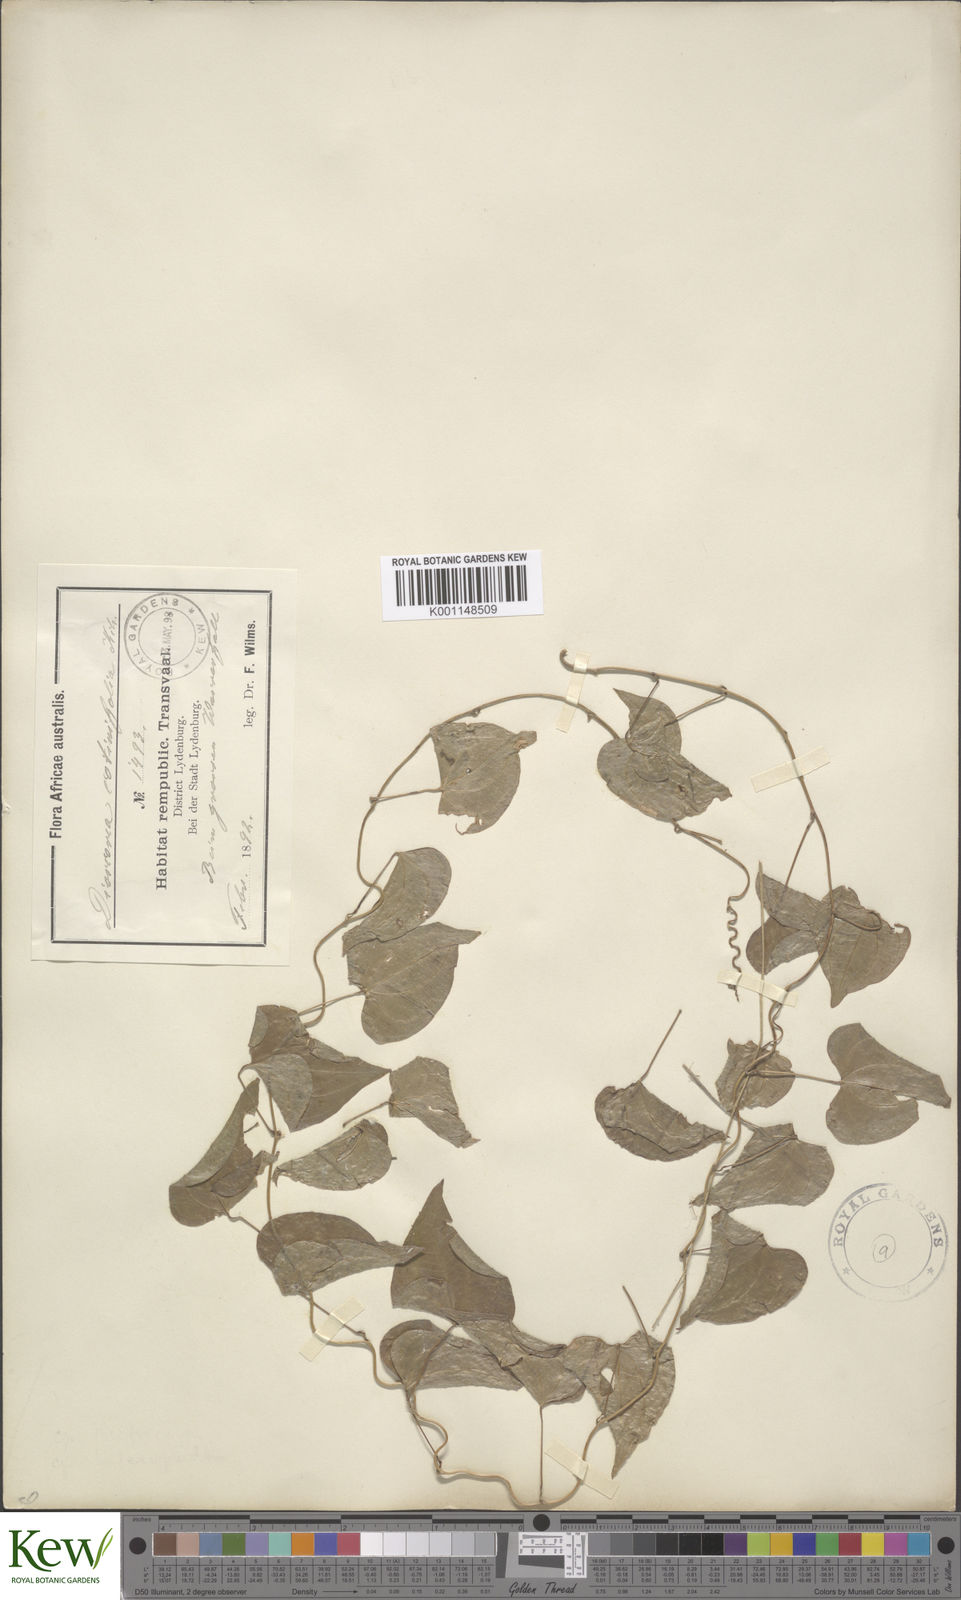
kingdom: Plantae
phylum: Tracheophyta
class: Liliopsida
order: Dioscoreales
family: Dioscoreaceae
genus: Dioscorea
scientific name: Dioscorea cotinifolia
